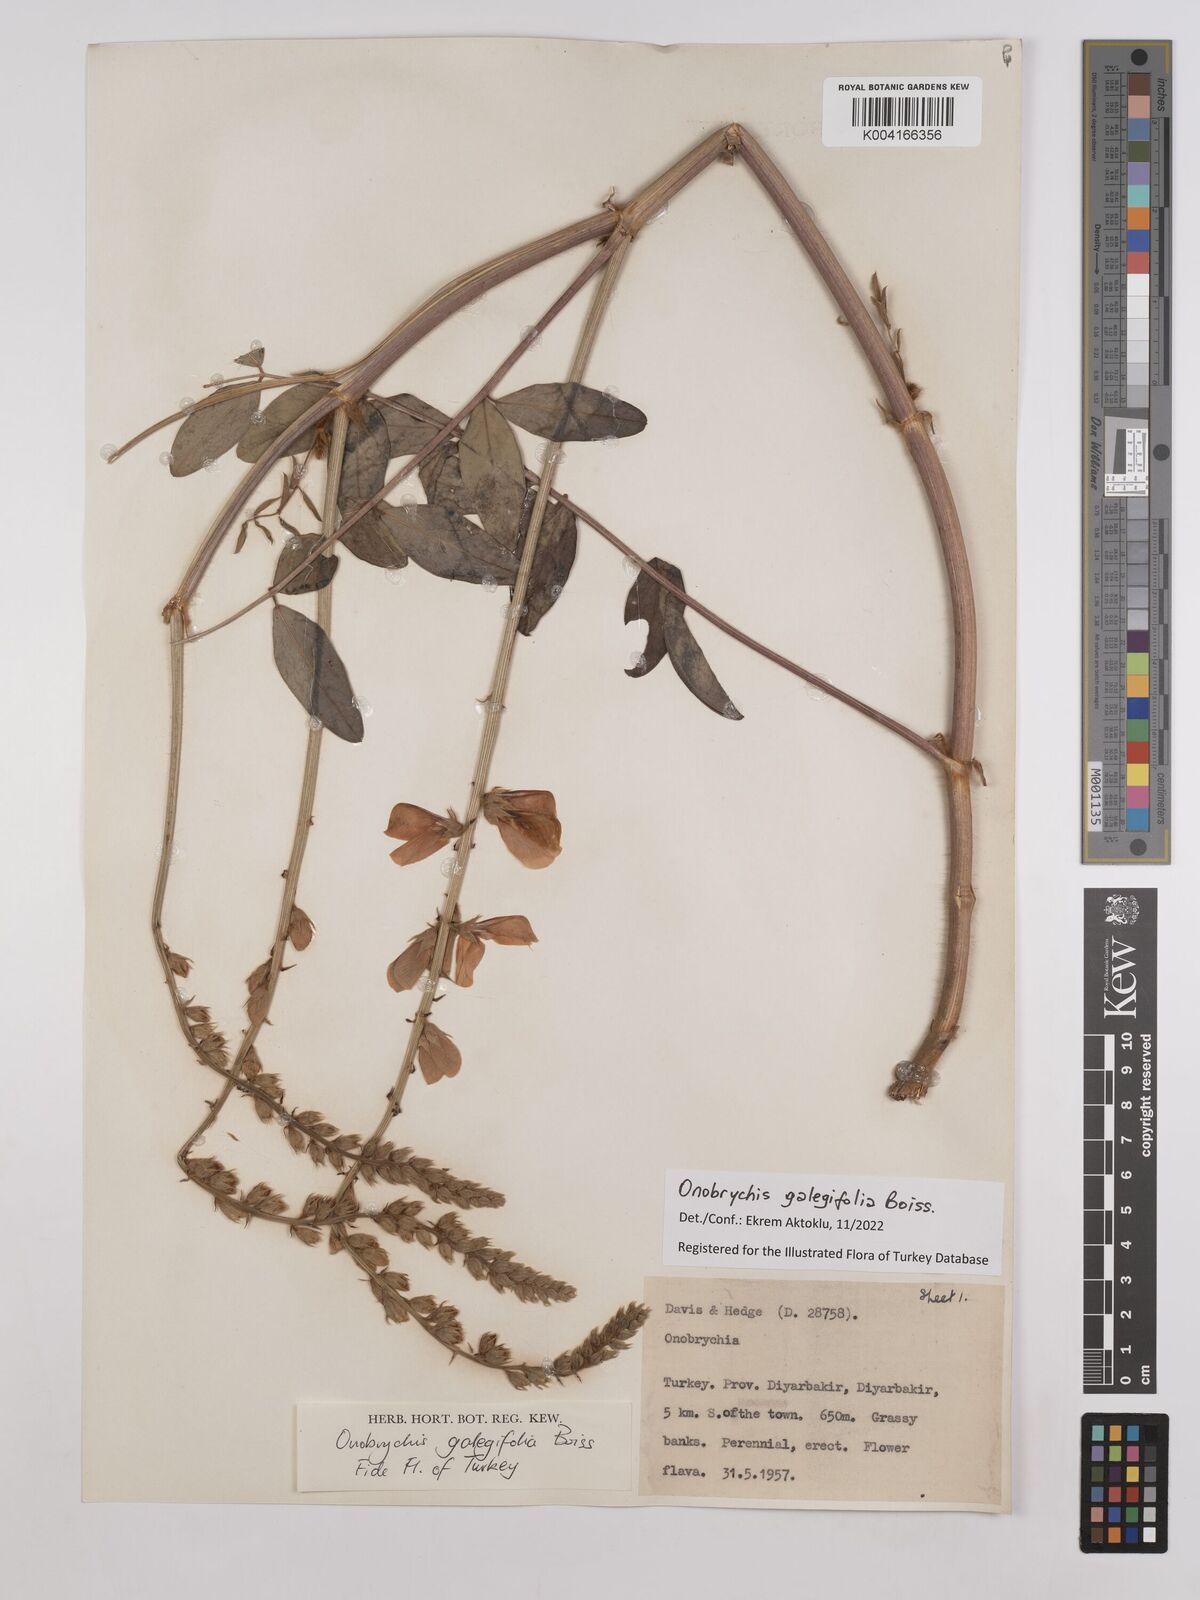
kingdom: Plantae
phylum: Tracheophyta
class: Magnoliopsida
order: Fabales
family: Fabaceae
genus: Onobrychis
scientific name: Onobrychis galegifolia
